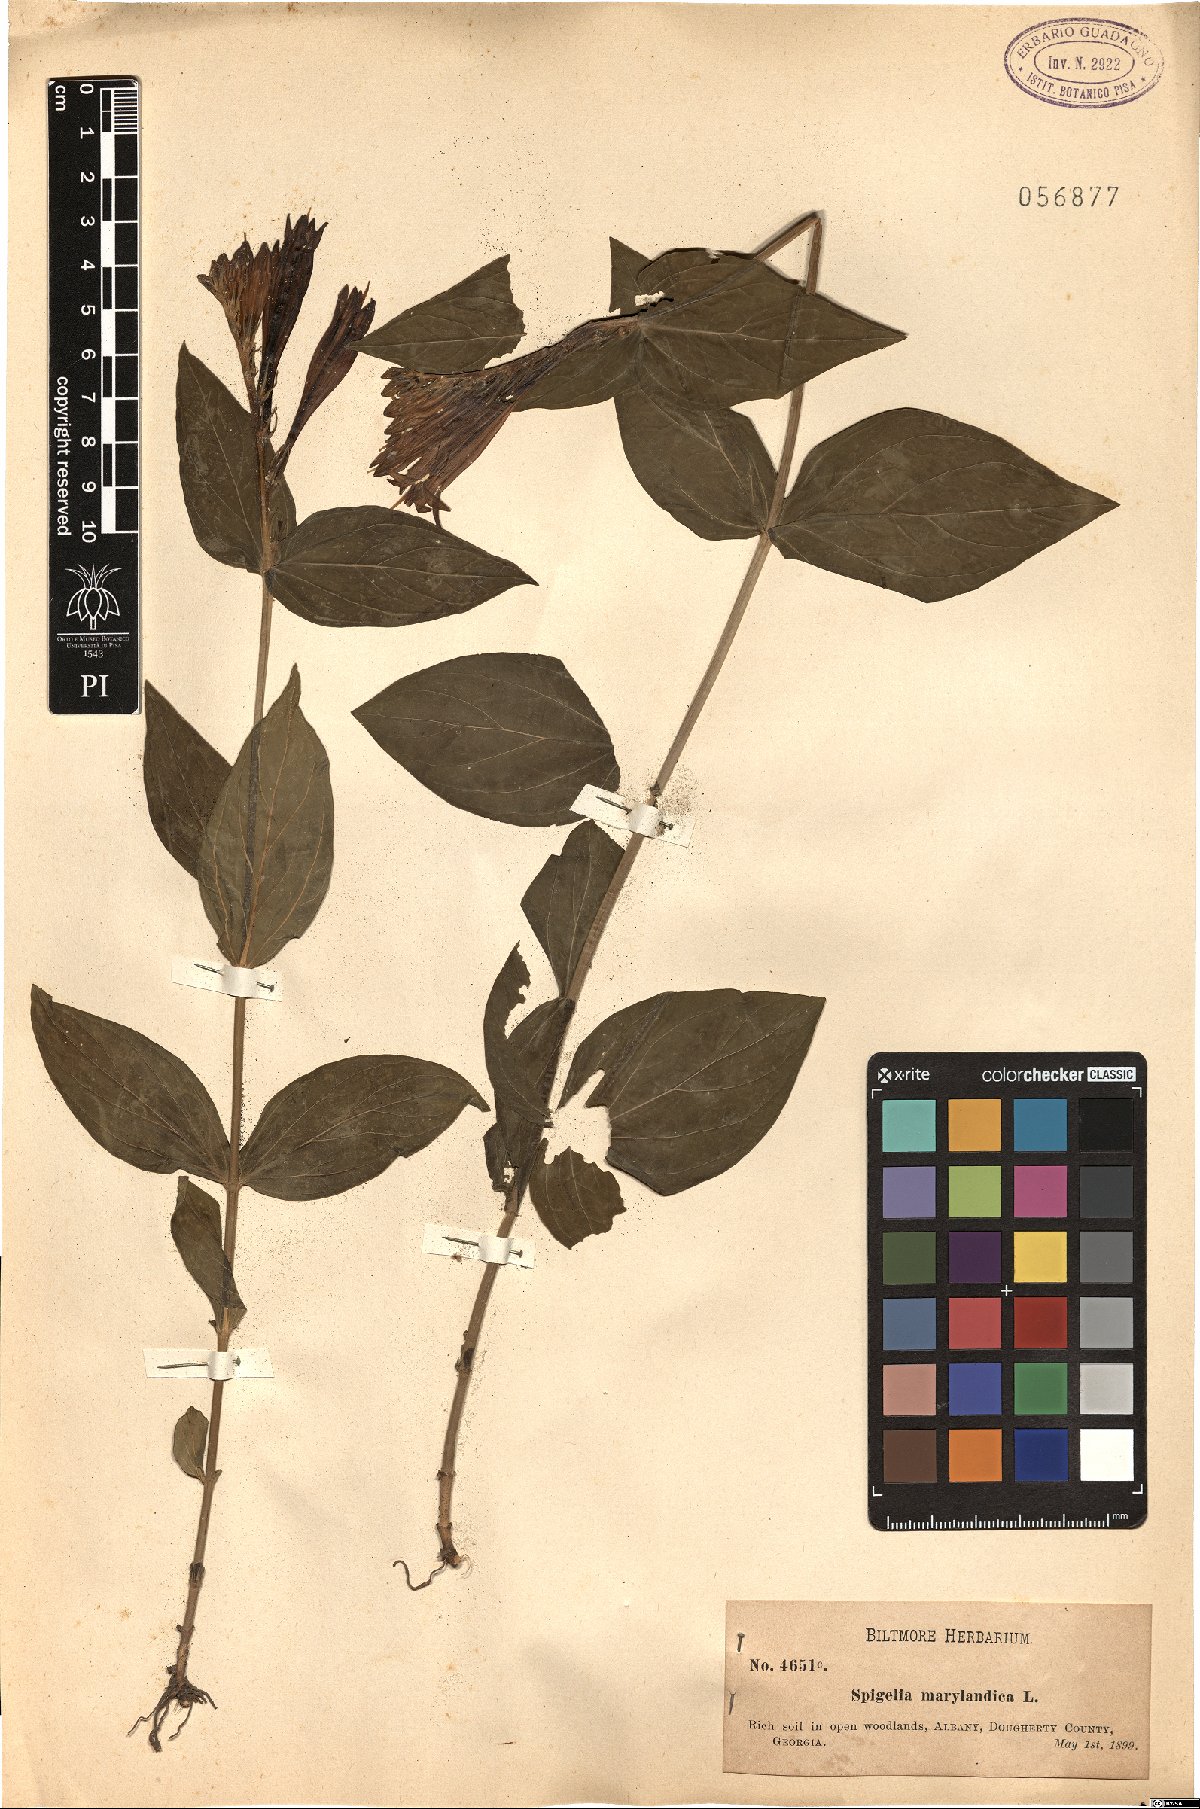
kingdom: Plantae
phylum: Tracheophyta
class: Magnoliopsida
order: Gentianales
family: Loganiaceae
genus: Spigelia
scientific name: Spigelia marilandica
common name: Indian-pink
